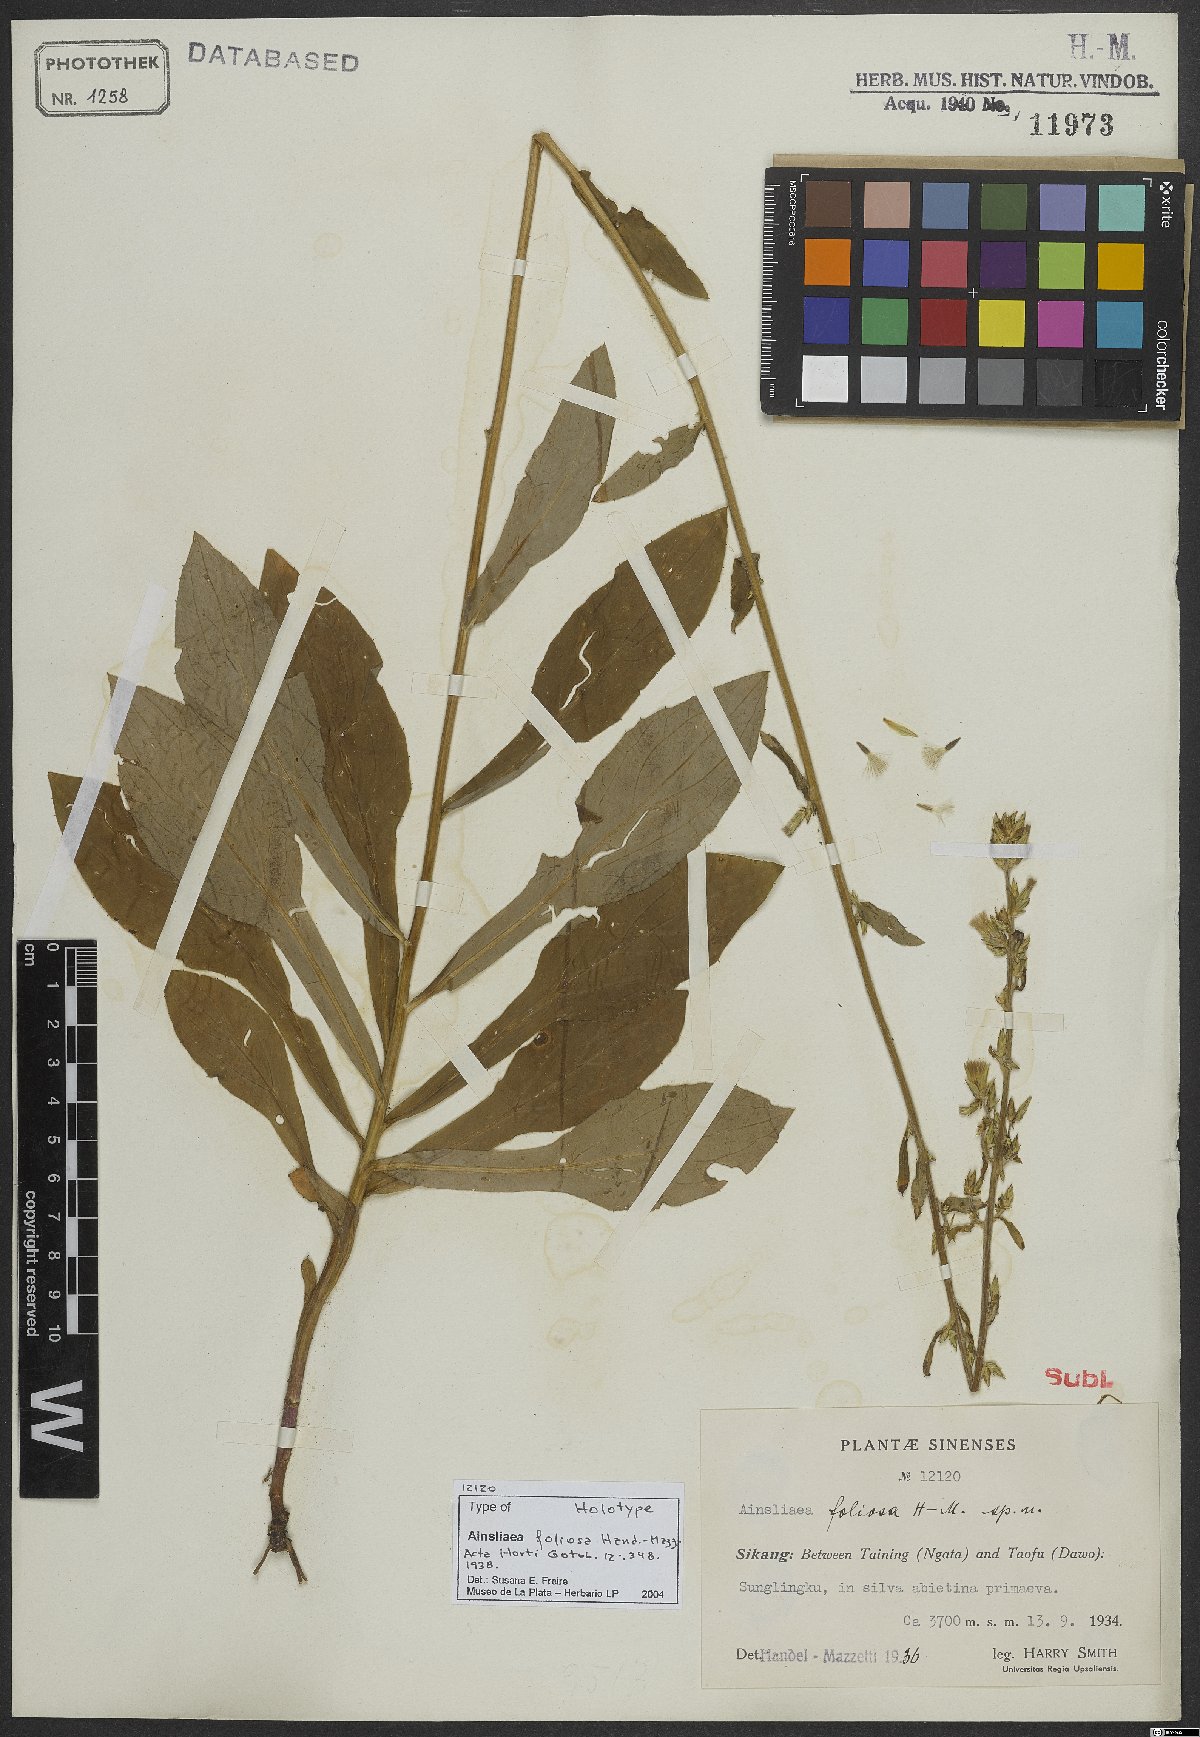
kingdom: Plantae
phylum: Tracheophyta
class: Magnoliopsida
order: Asterales
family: Asteraceae
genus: Ainsliaea
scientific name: Ainsliaea foliosa
